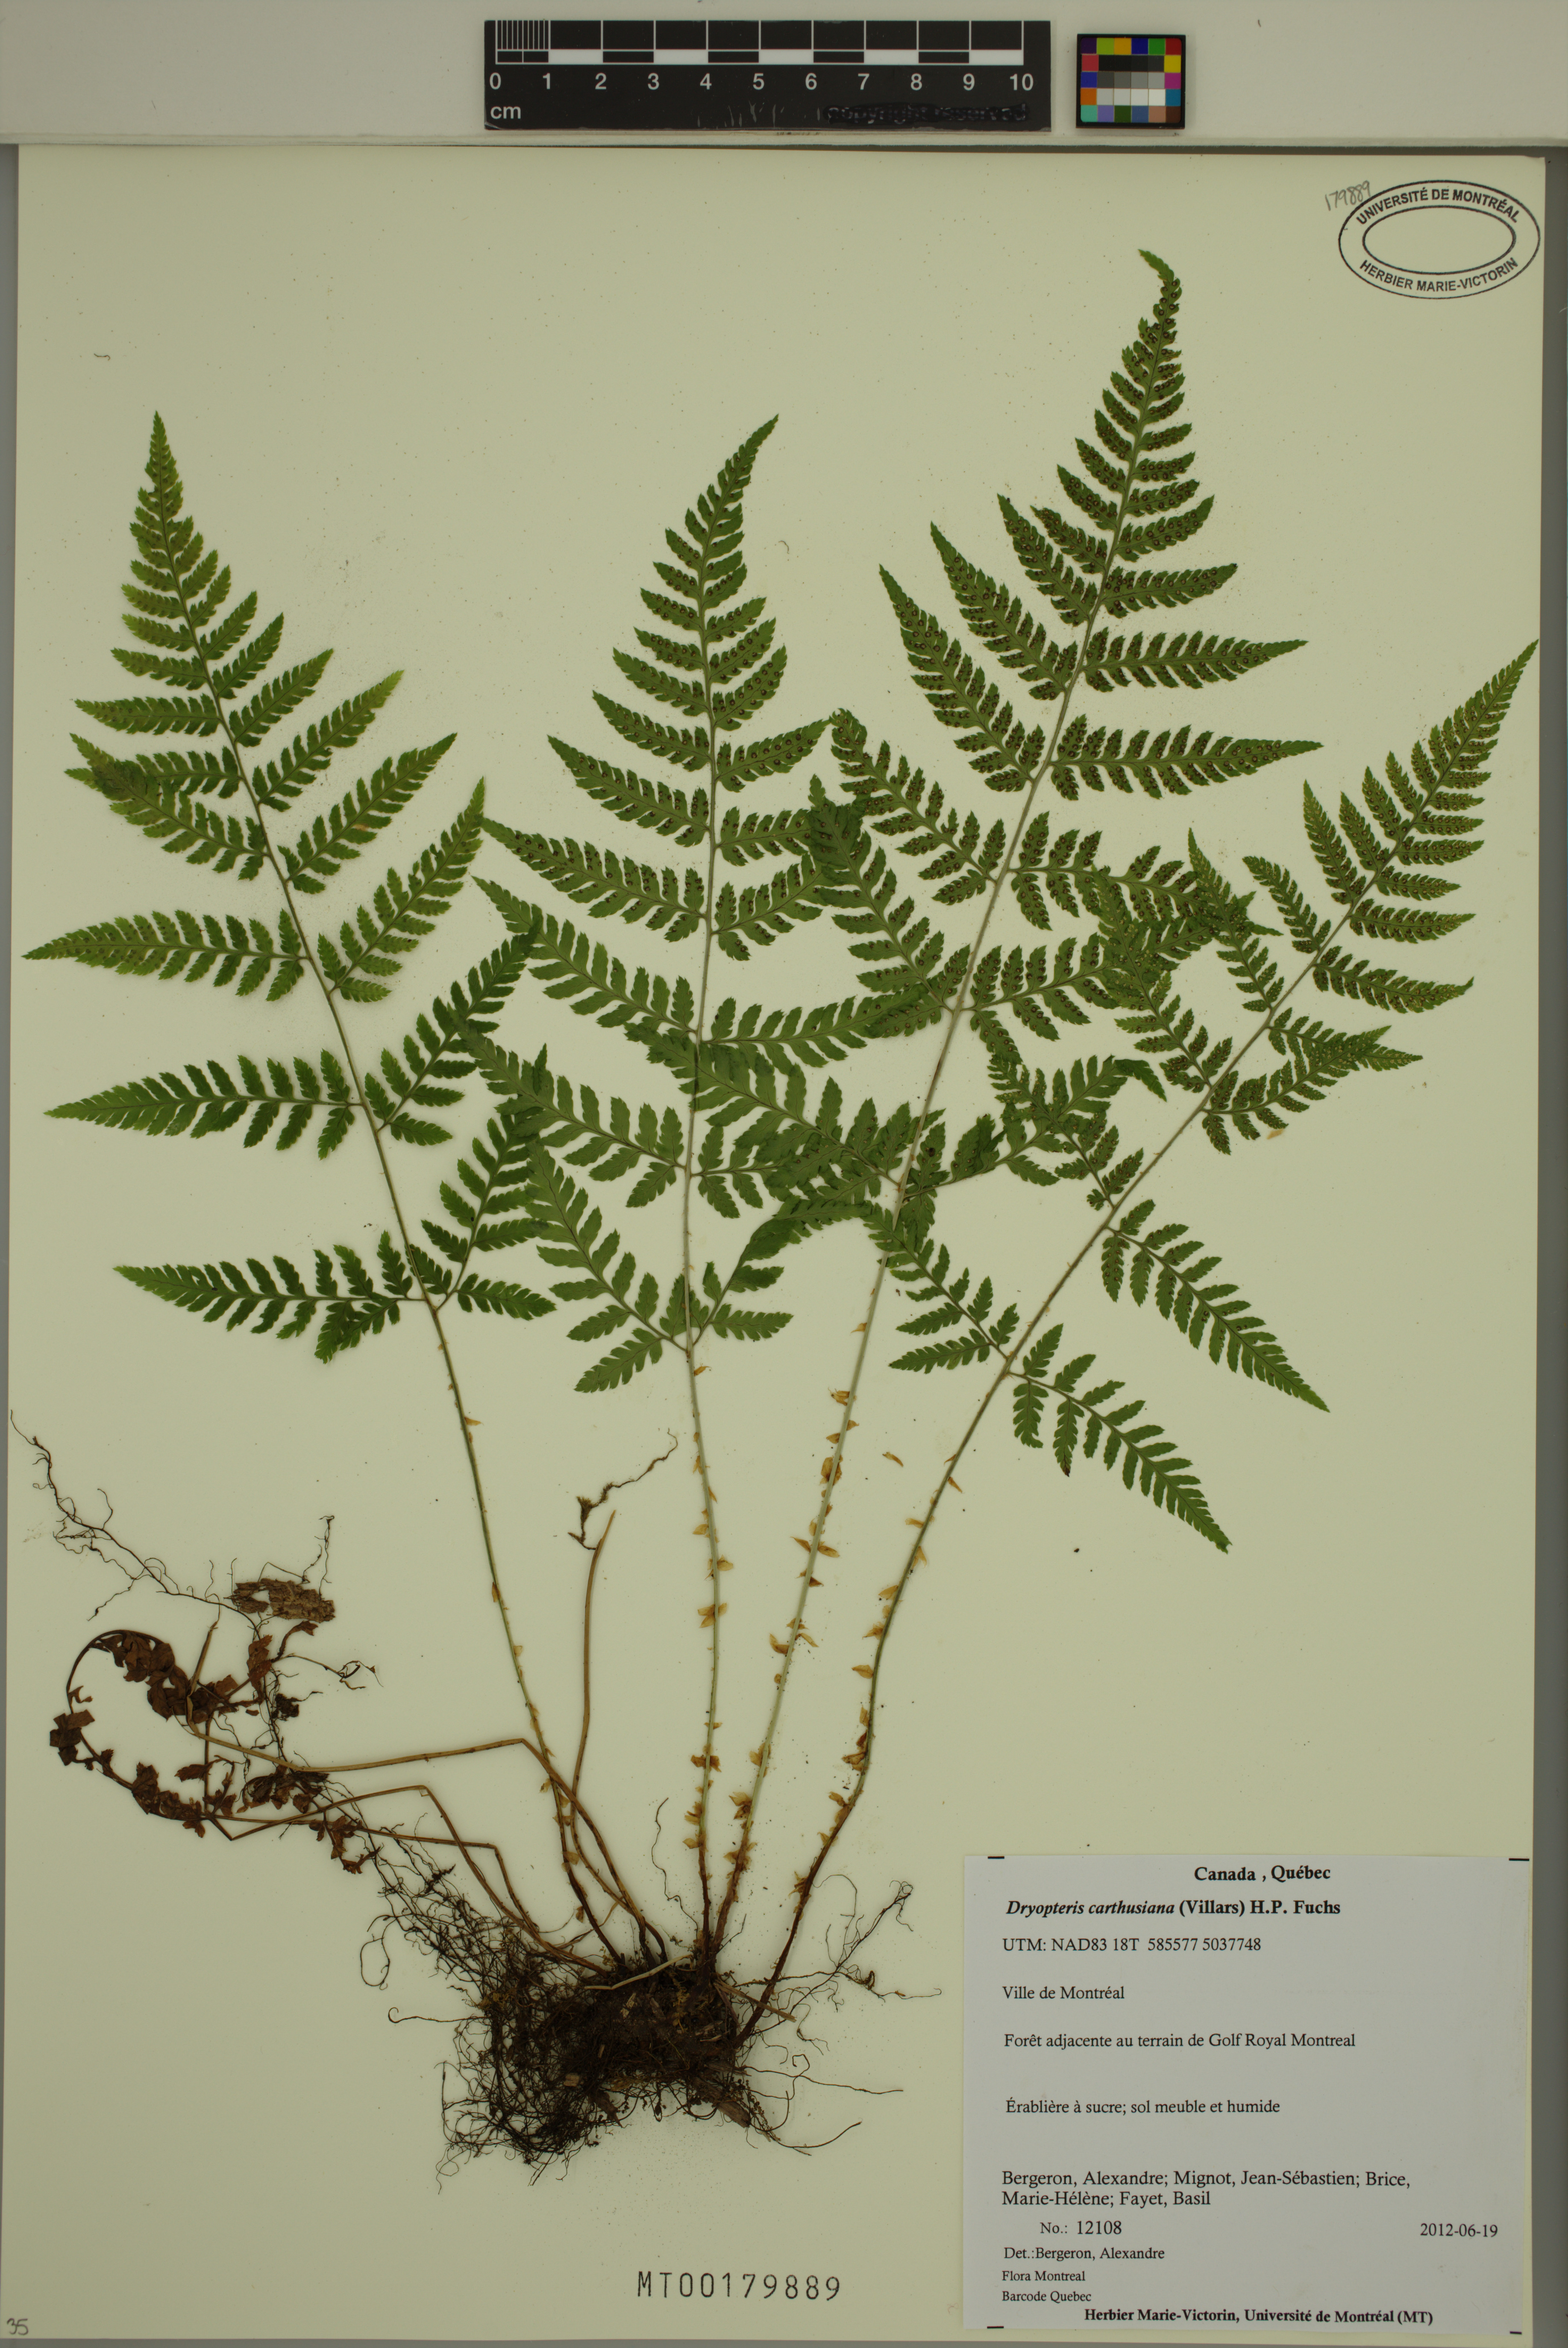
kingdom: Plantae
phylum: Tracheophyta
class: Polypodiopsida
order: Polypodiales
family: Dryopteridaceae
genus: Dryopteris
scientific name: Dryopteris carthusiana
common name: Narrow buckler-fern
